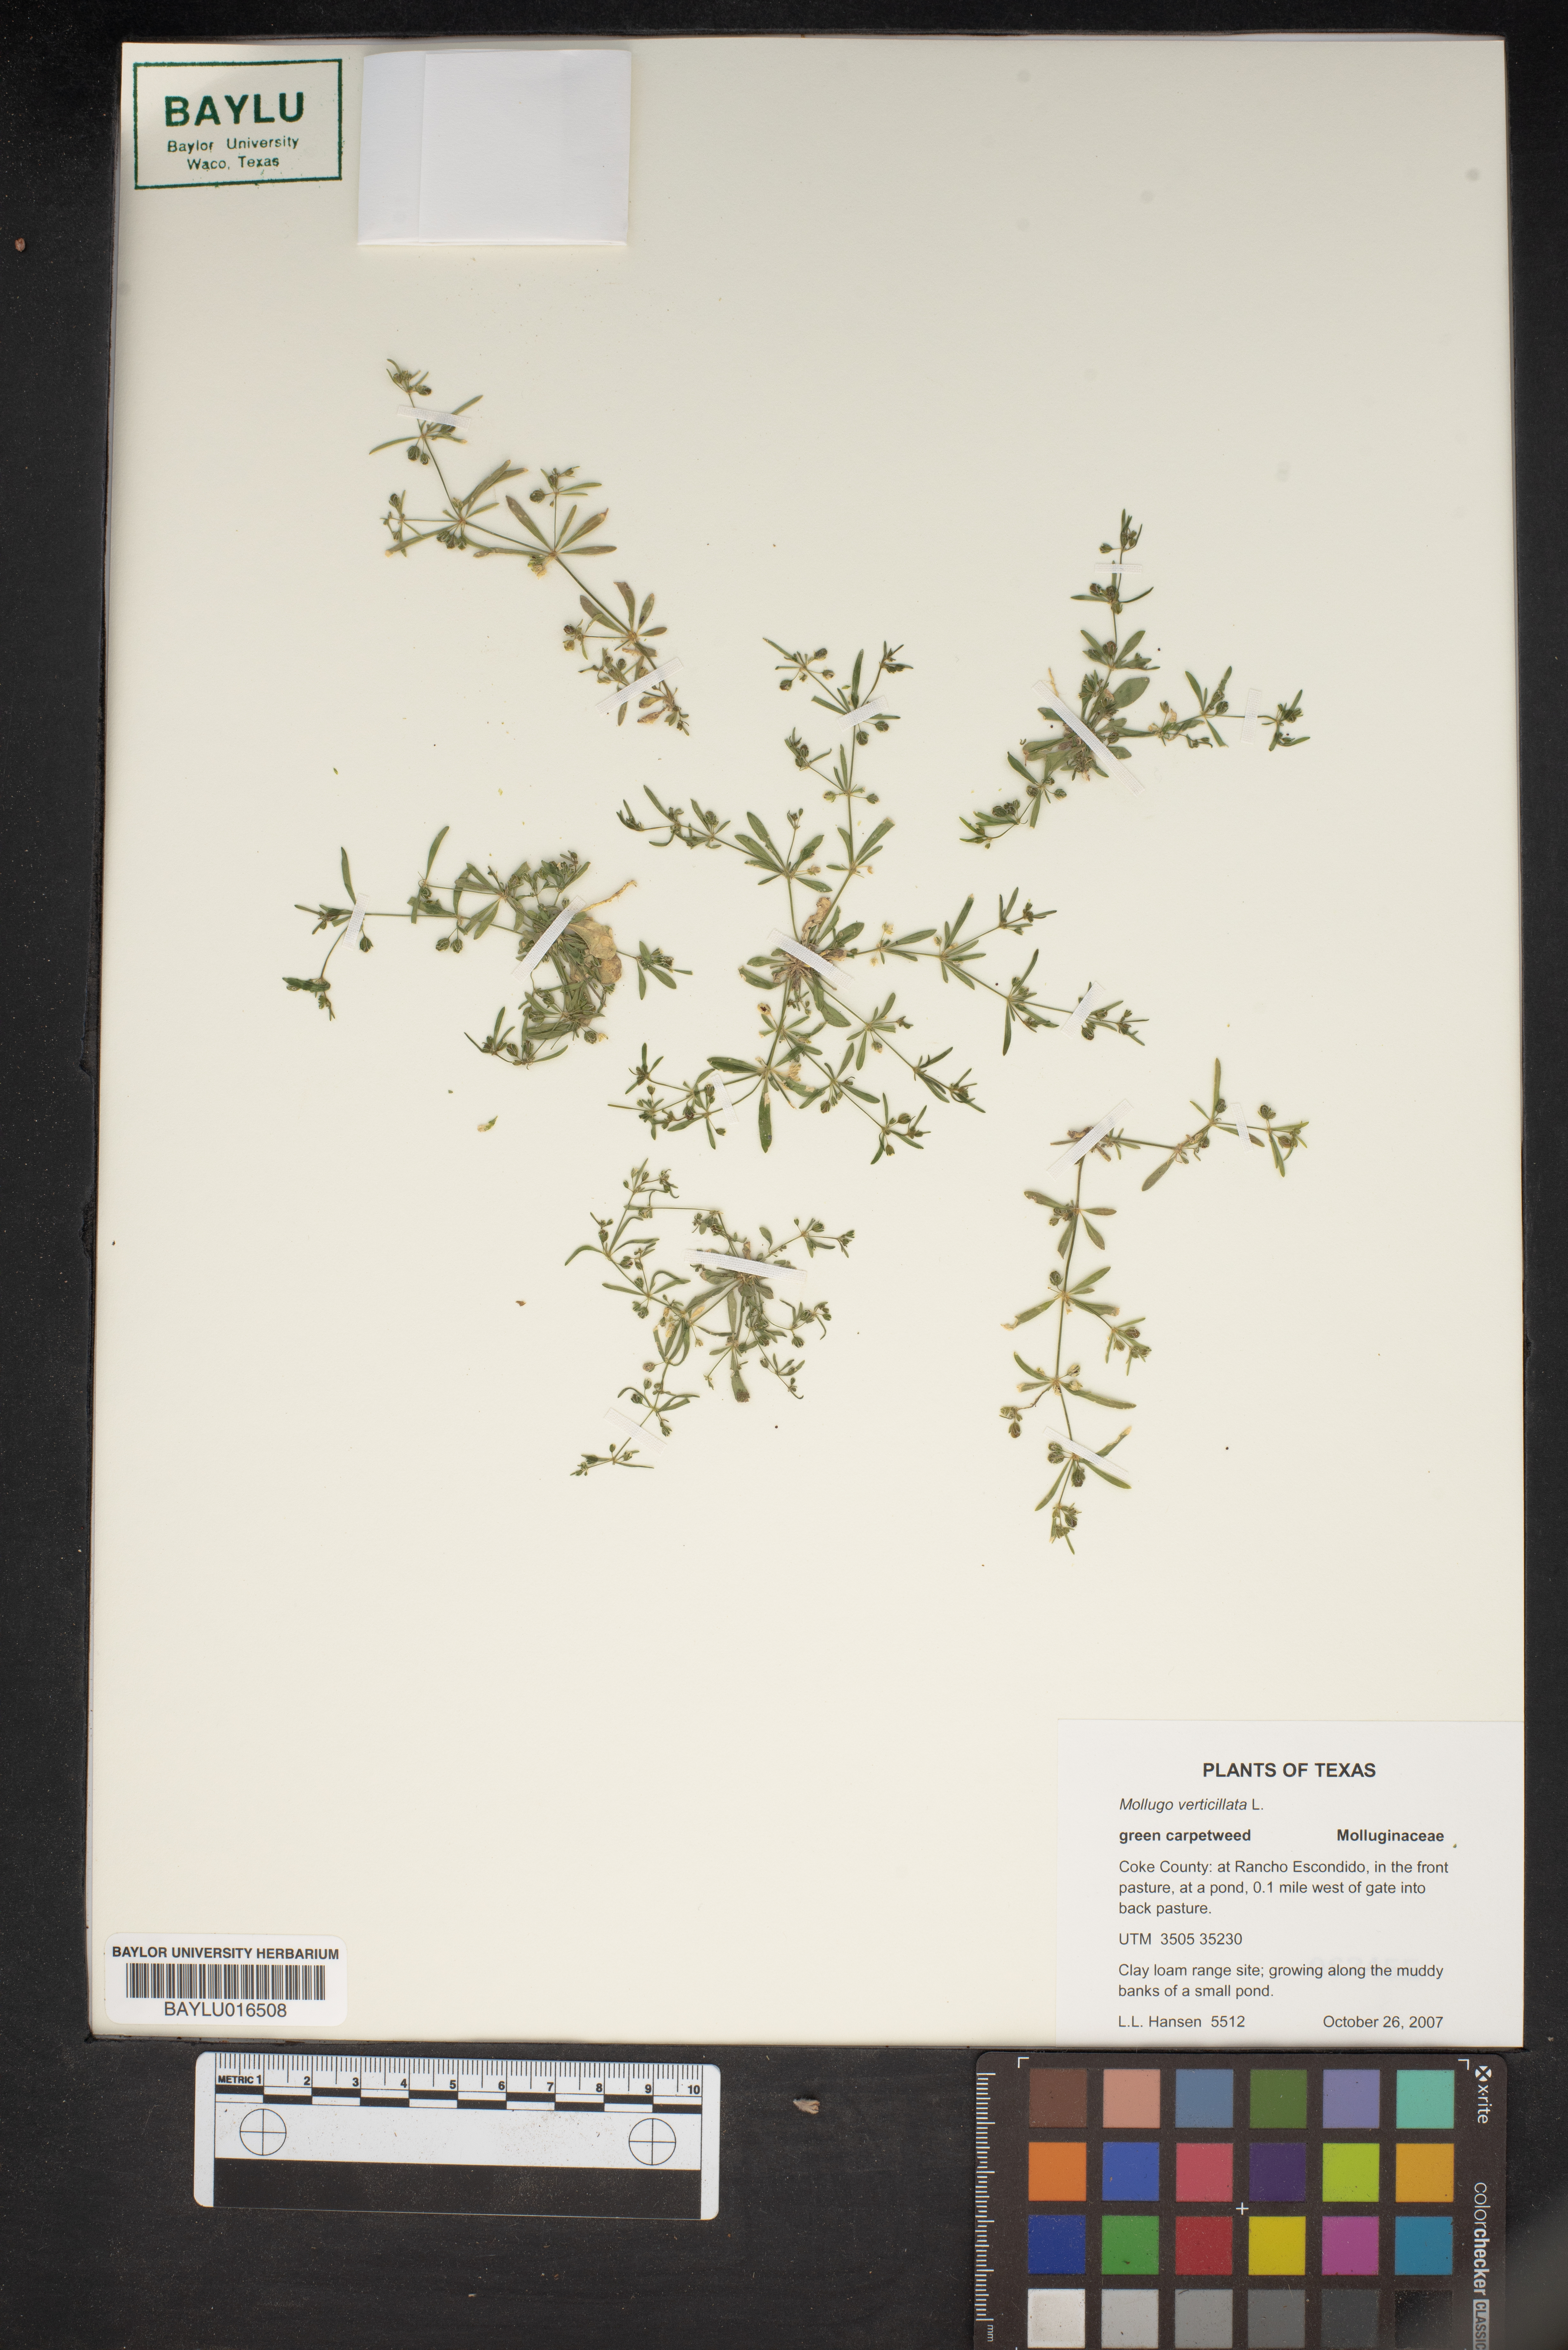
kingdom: Plantae
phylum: Tracheophyta
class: Magnoliopsida
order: Caryophyllales
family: Molluginaceae
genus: Mollugo
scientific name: Mollugo verticillata
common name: Green carpetweed
